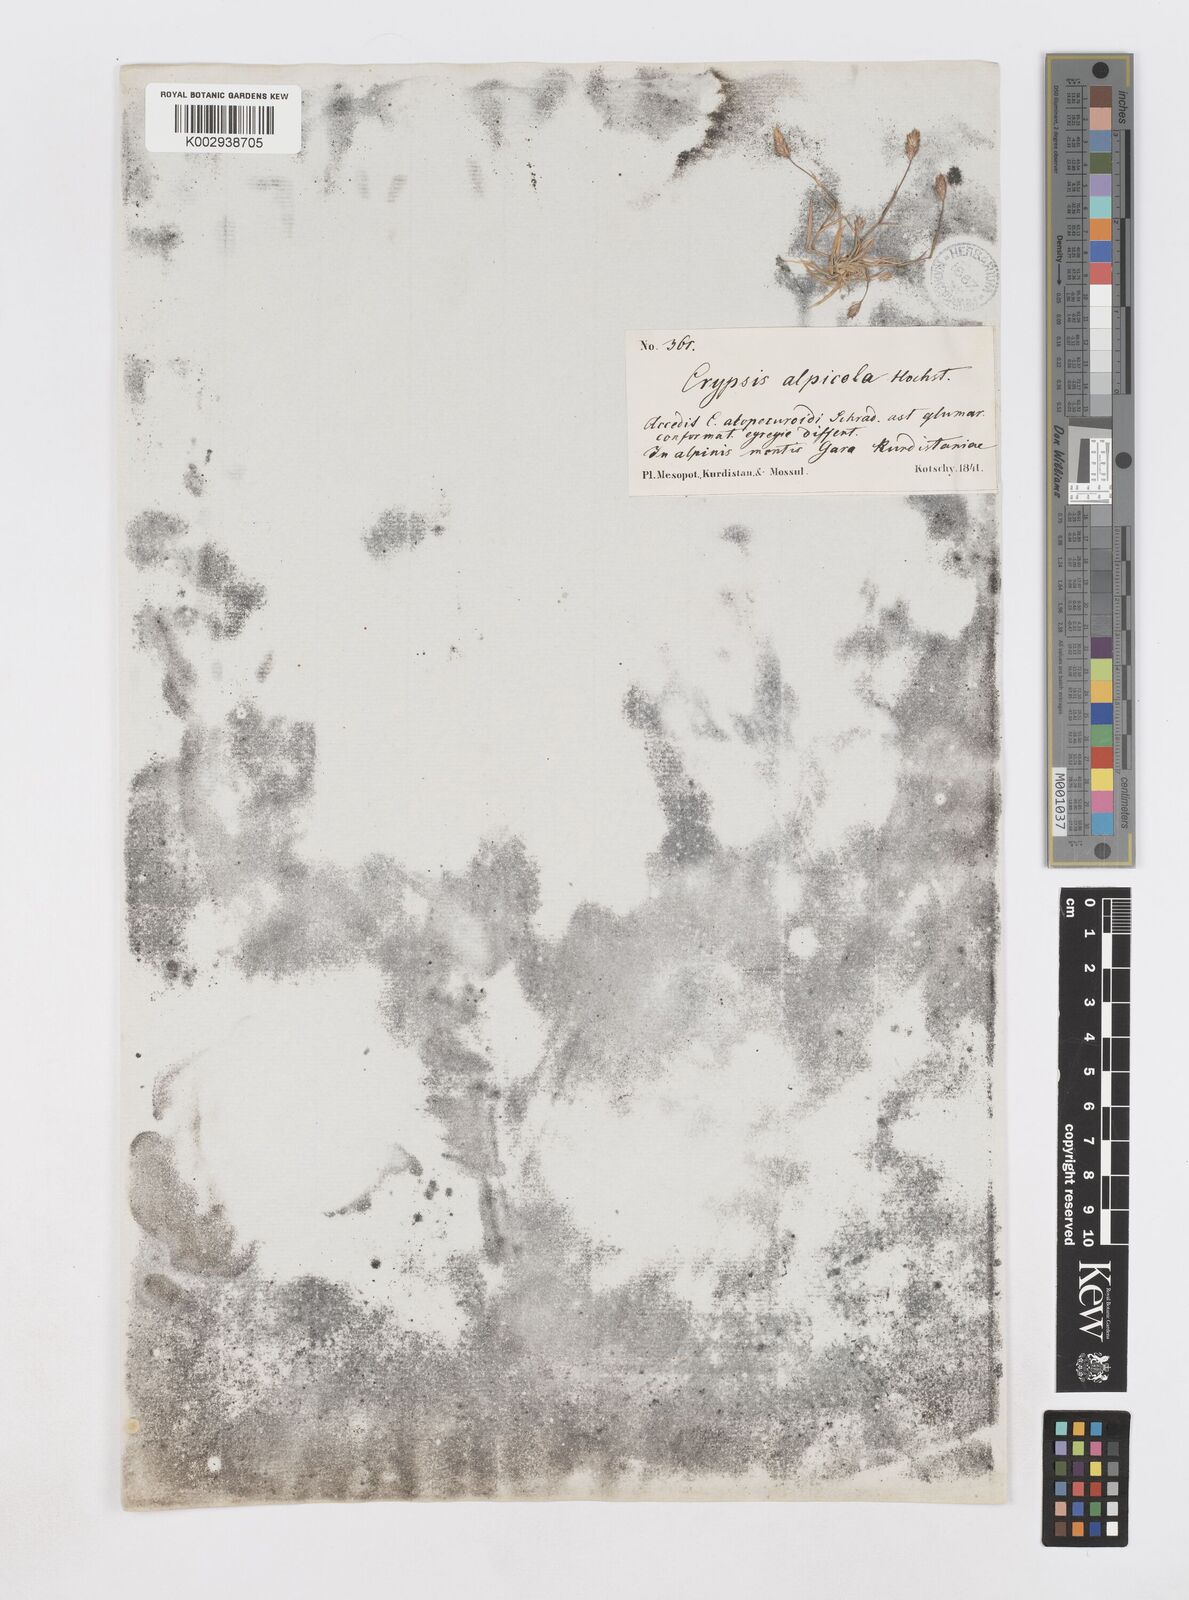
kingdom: Plantae
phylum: Tracheophyta
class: Liliopsida
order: Poales
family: Poaceae
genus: Sporobolus
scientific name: Sporobolus alopecuroides
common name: Foxtail pricklegrass
